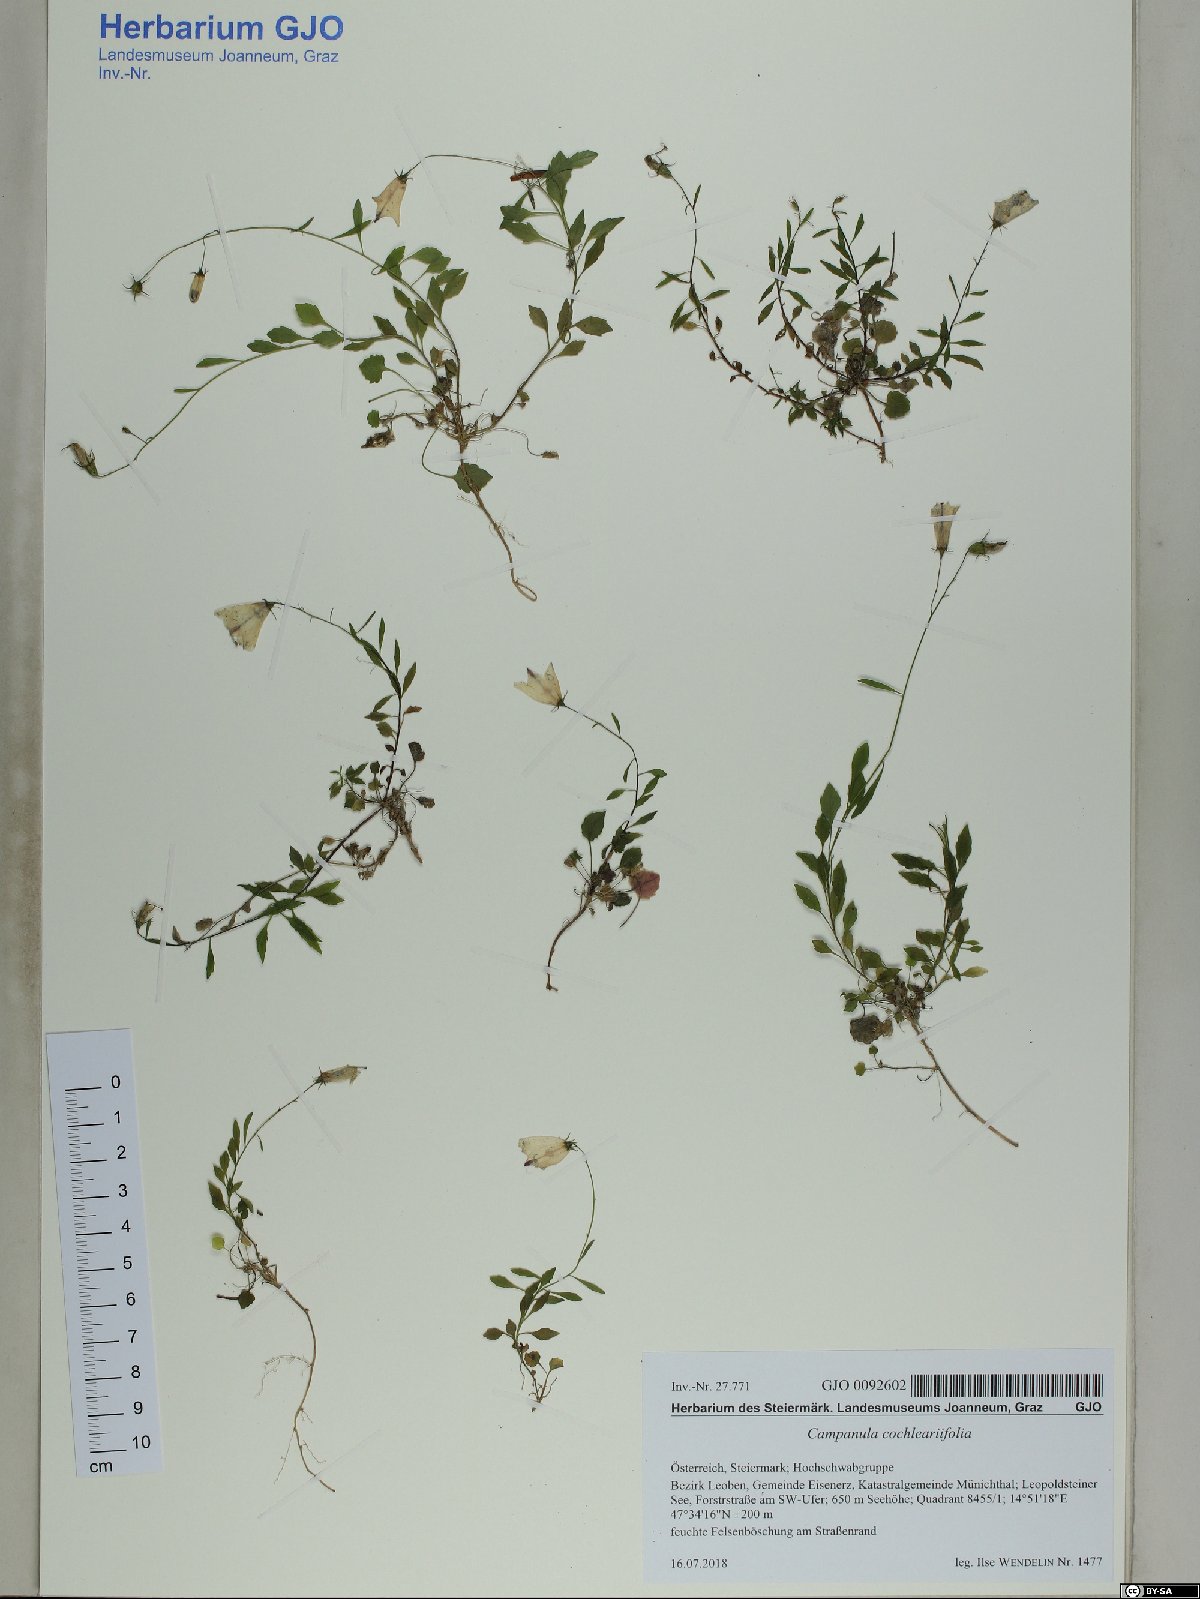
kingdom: Plantae
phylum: Tracheophyta
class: Magnoliopsida
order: Asterales
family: Campanulaceae
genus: Campanula
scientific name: Campanula cochleariifolia
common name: Fairies'-thimbles
